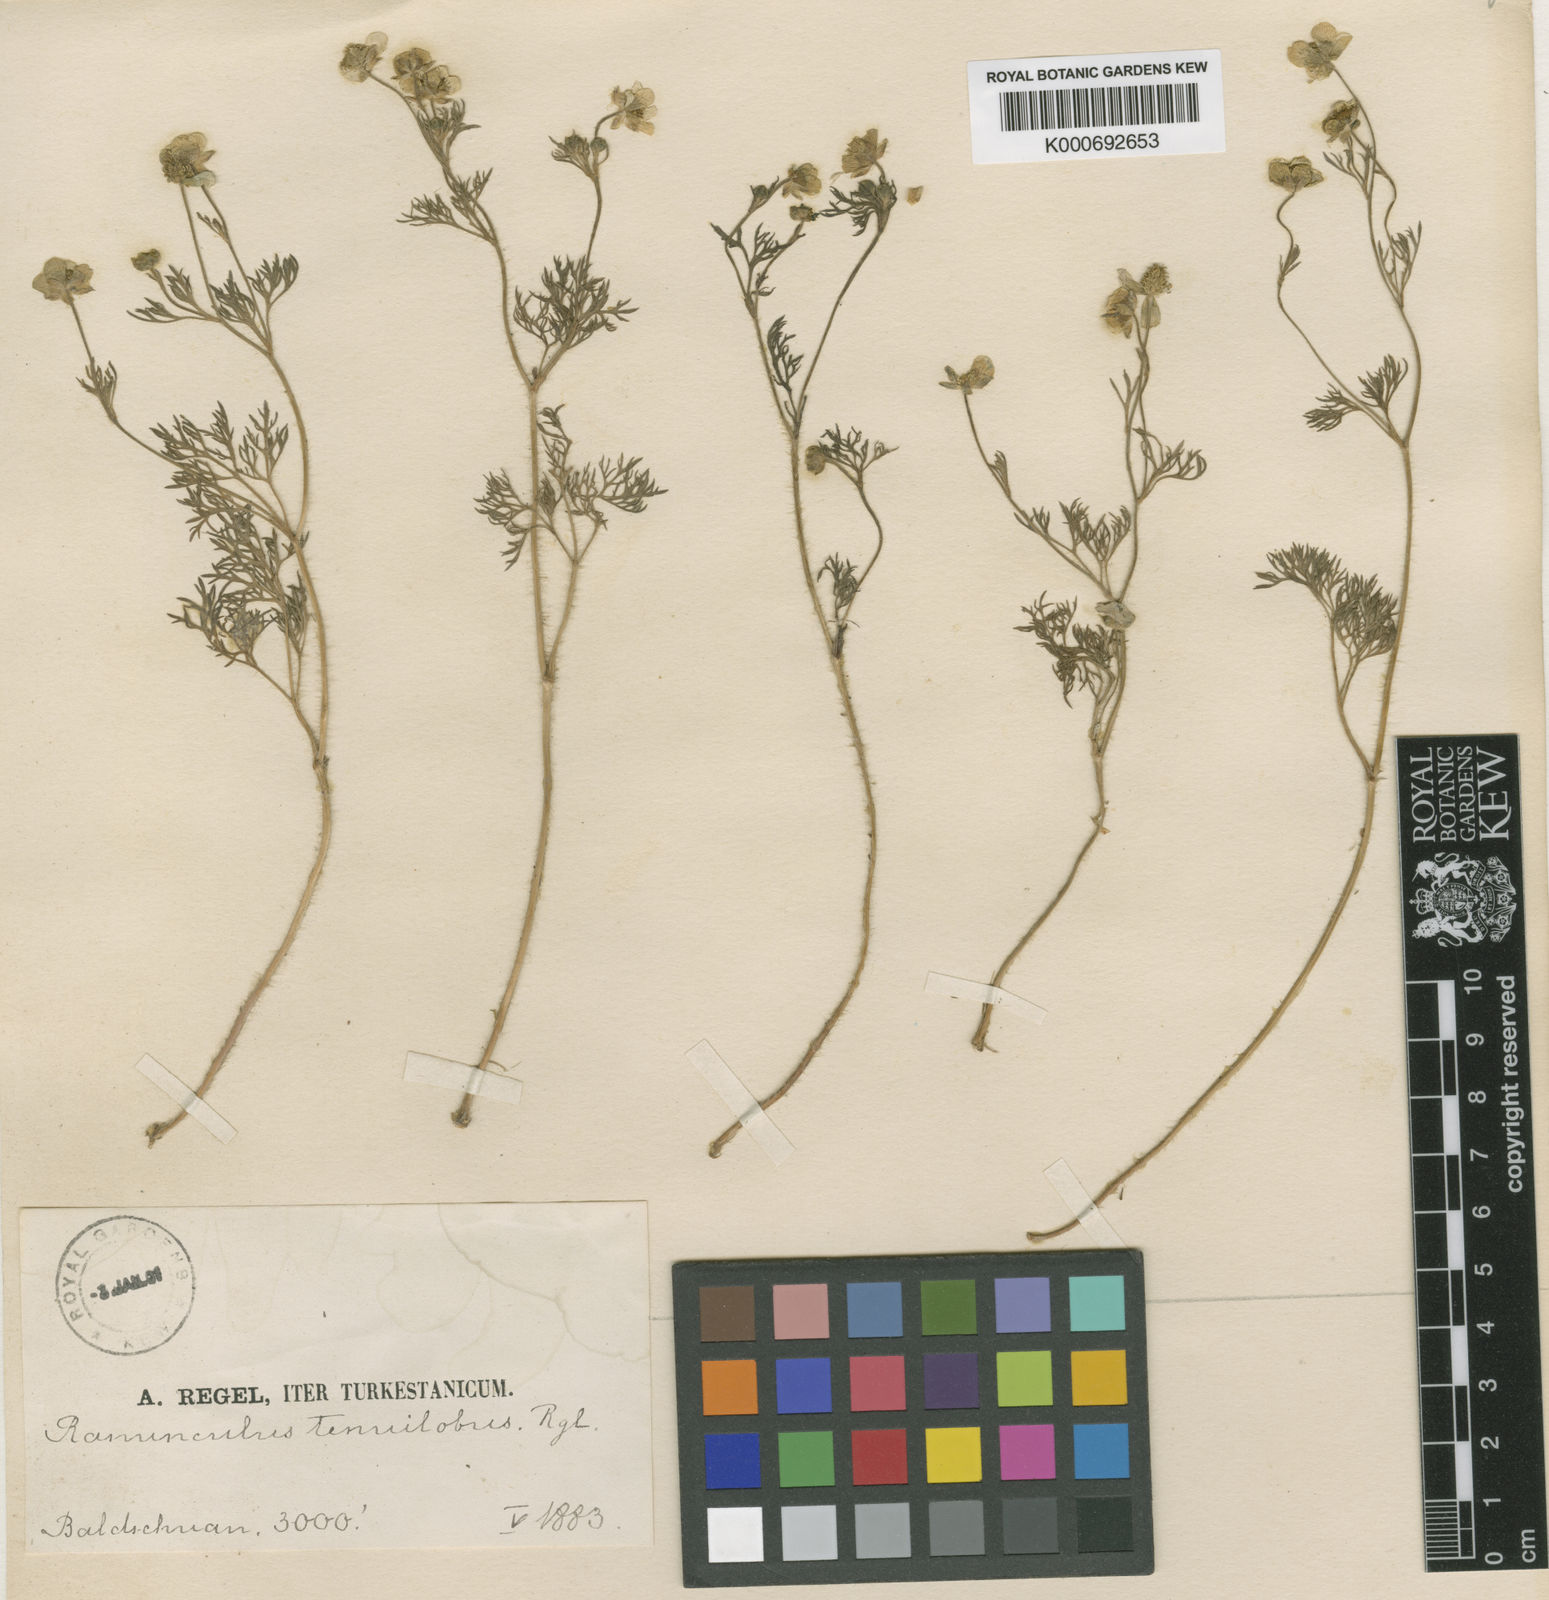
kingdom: Plantae
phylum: Tracheophyta
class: Magnoliopsida
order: Ranunculales
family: Ranunculaceae
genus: Ranunculus
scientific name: Ranunculus tenuilobus
